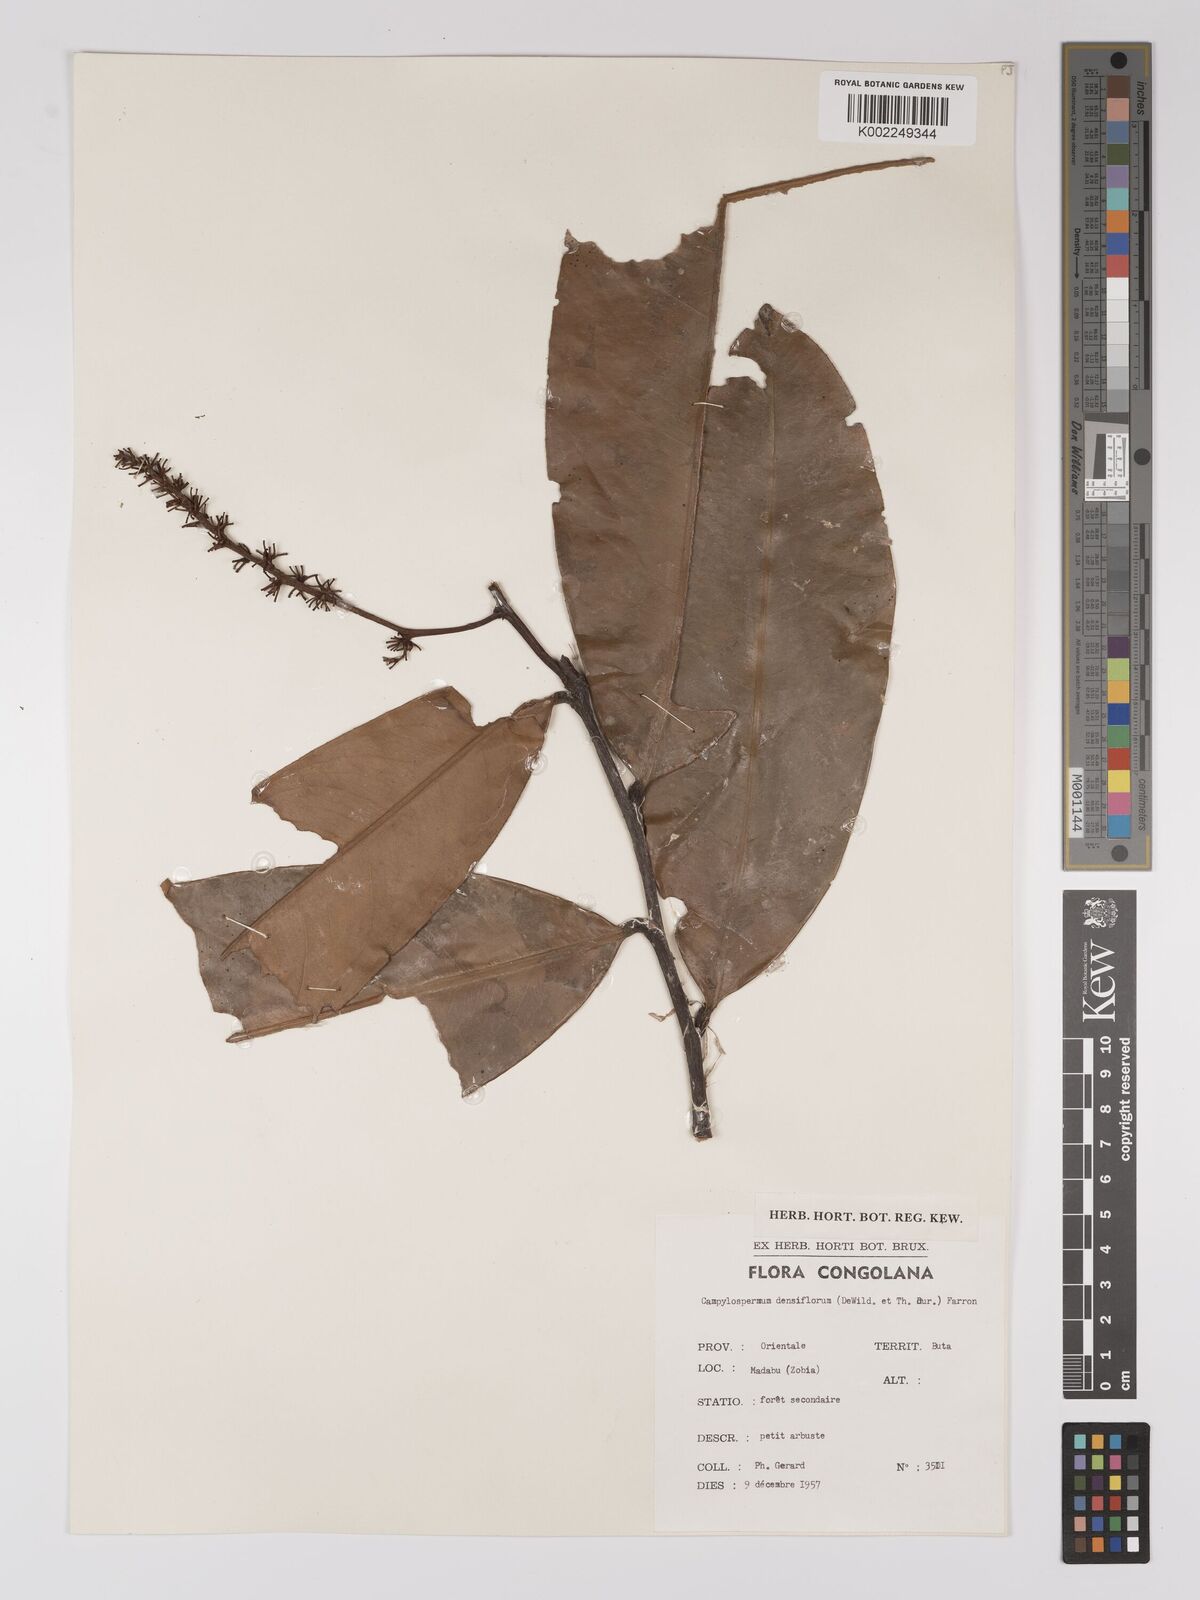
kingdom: Plantae
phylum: Tracheophyta
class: Magnoliopsida
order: Malpighiales
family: Ochnaceae
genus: Gomphia
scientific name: Gomphia densiflora
